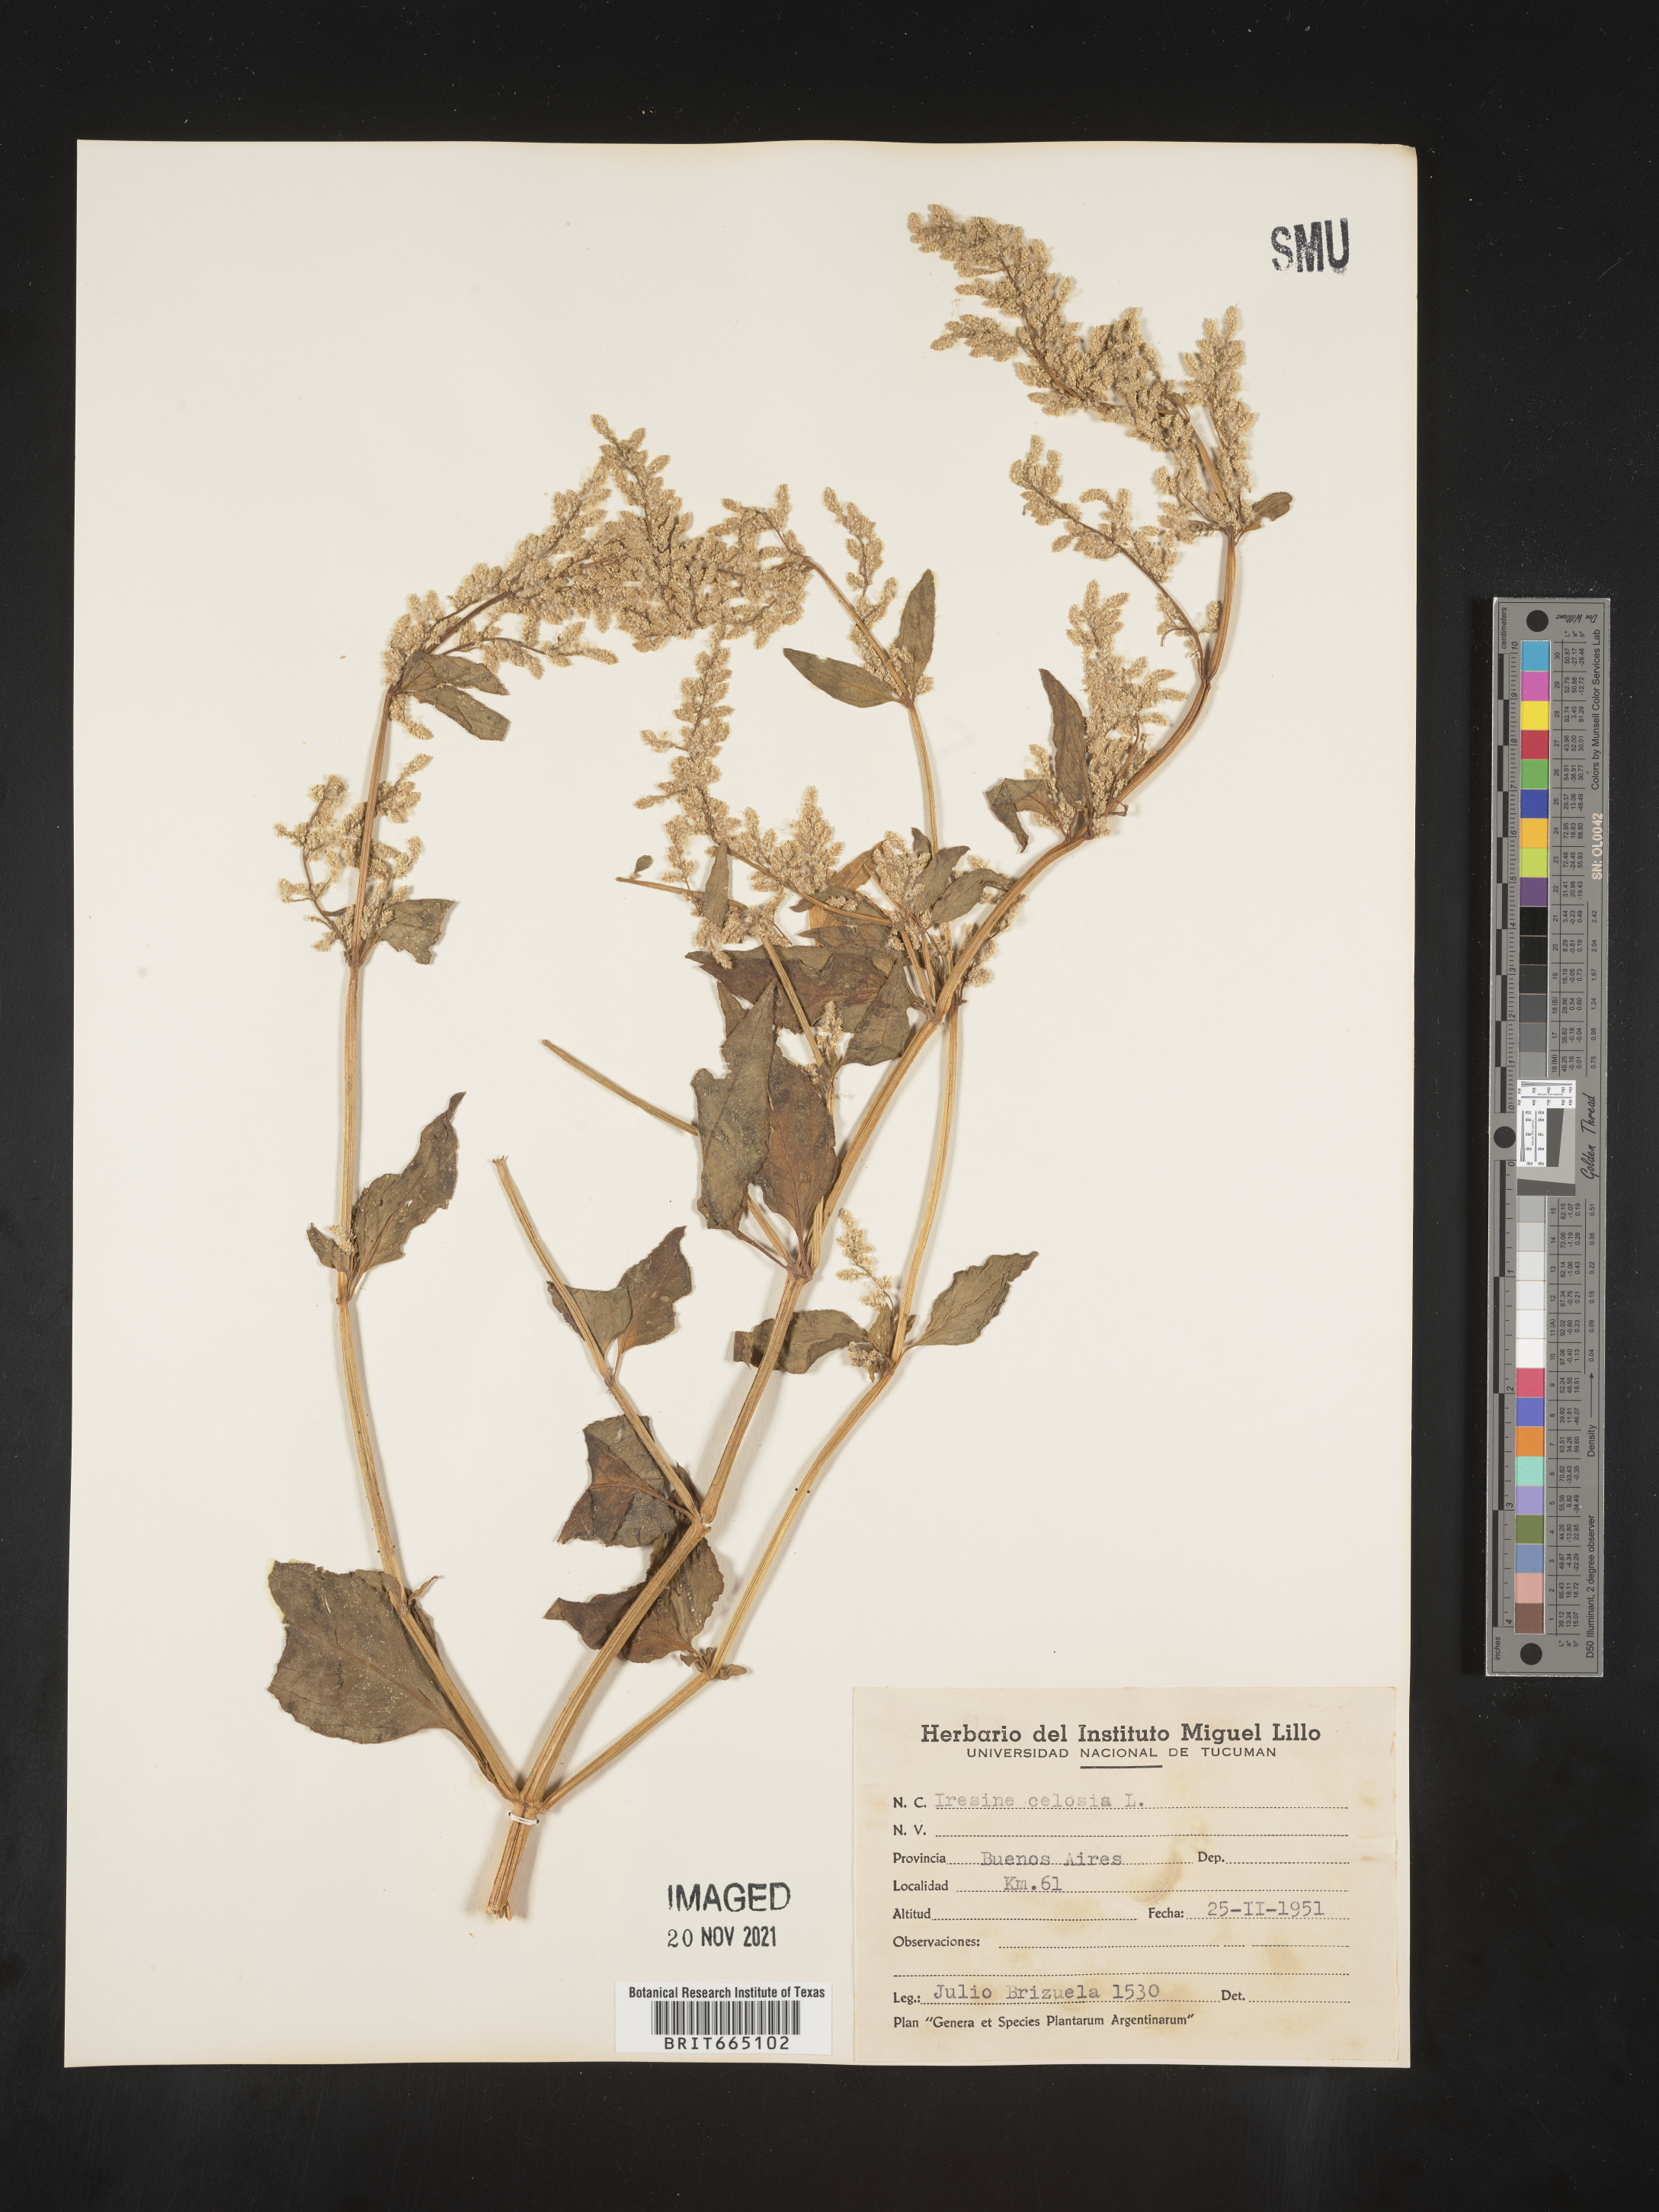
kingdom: Plantae
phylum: Tracheophyta
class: Magnoliopsida
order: Caryophyllales
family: Amaranthaceae
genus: Iresine
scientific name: Iresine
